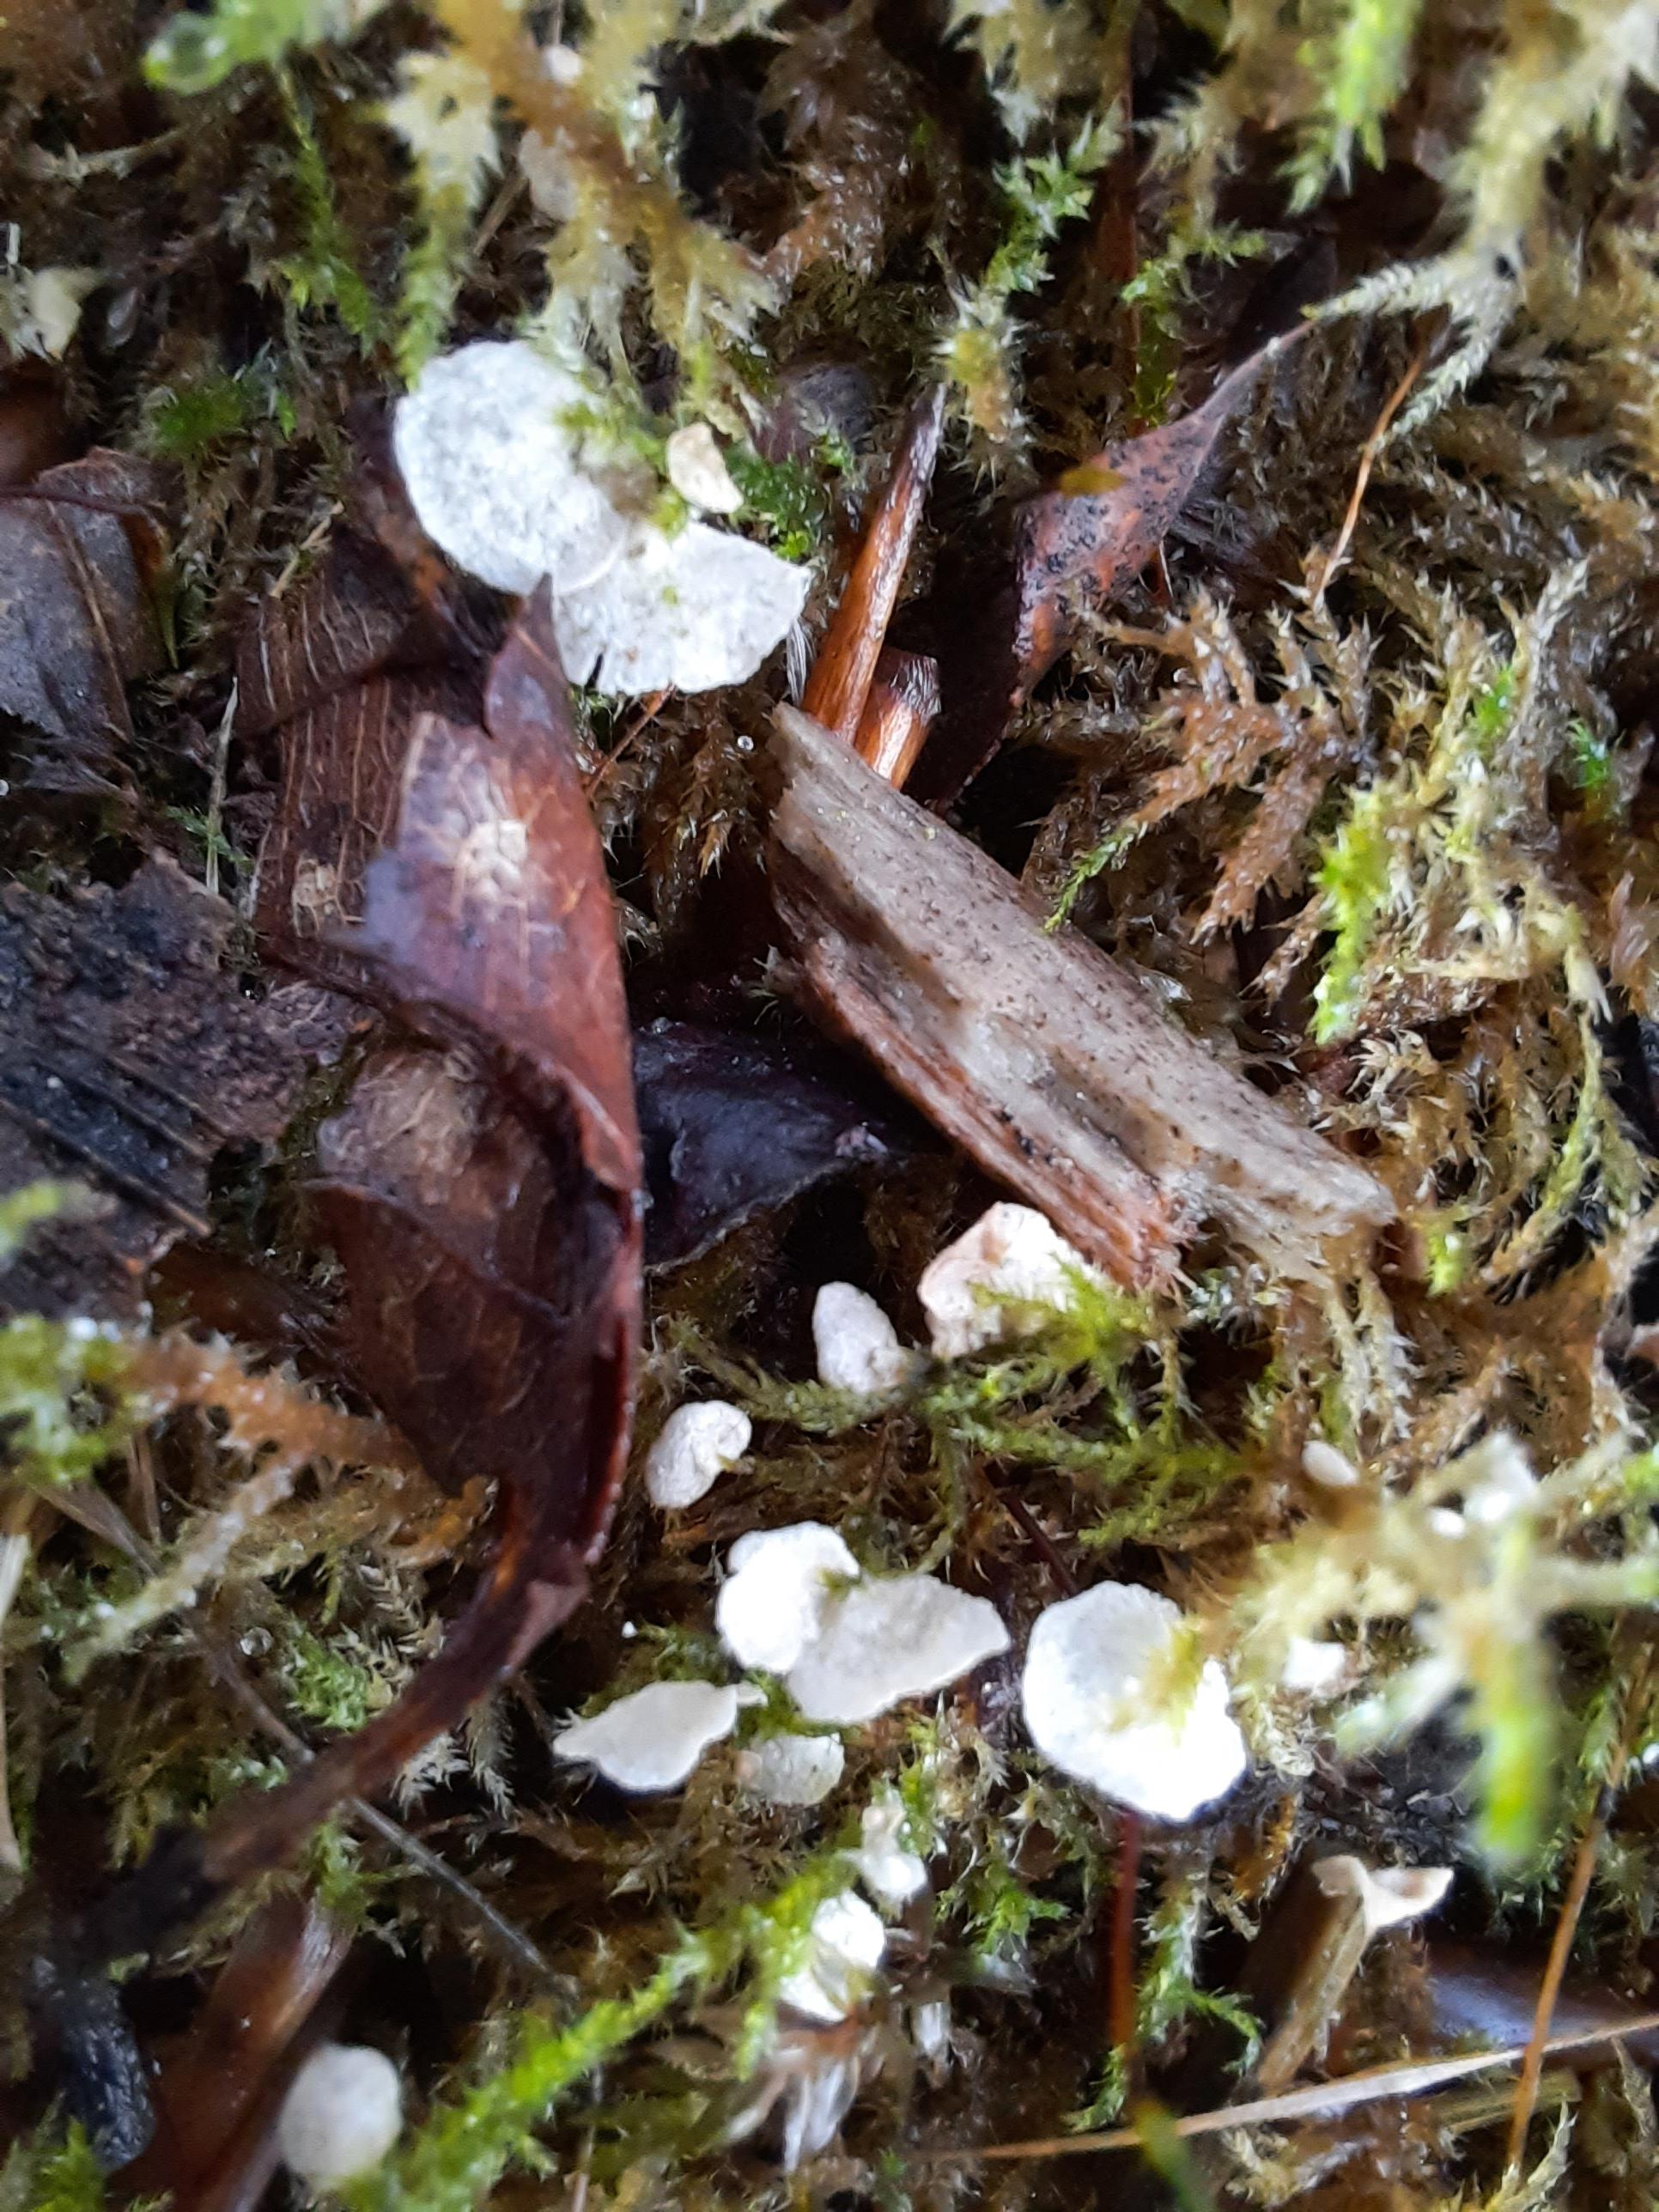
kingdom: Fungi
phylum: Basidiomycota
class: Agaricomycetes
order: Agaricales
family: Hygrophoraceae
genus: Arrhenia
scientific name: Arrhenia retiruga
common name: lille fontænehat
